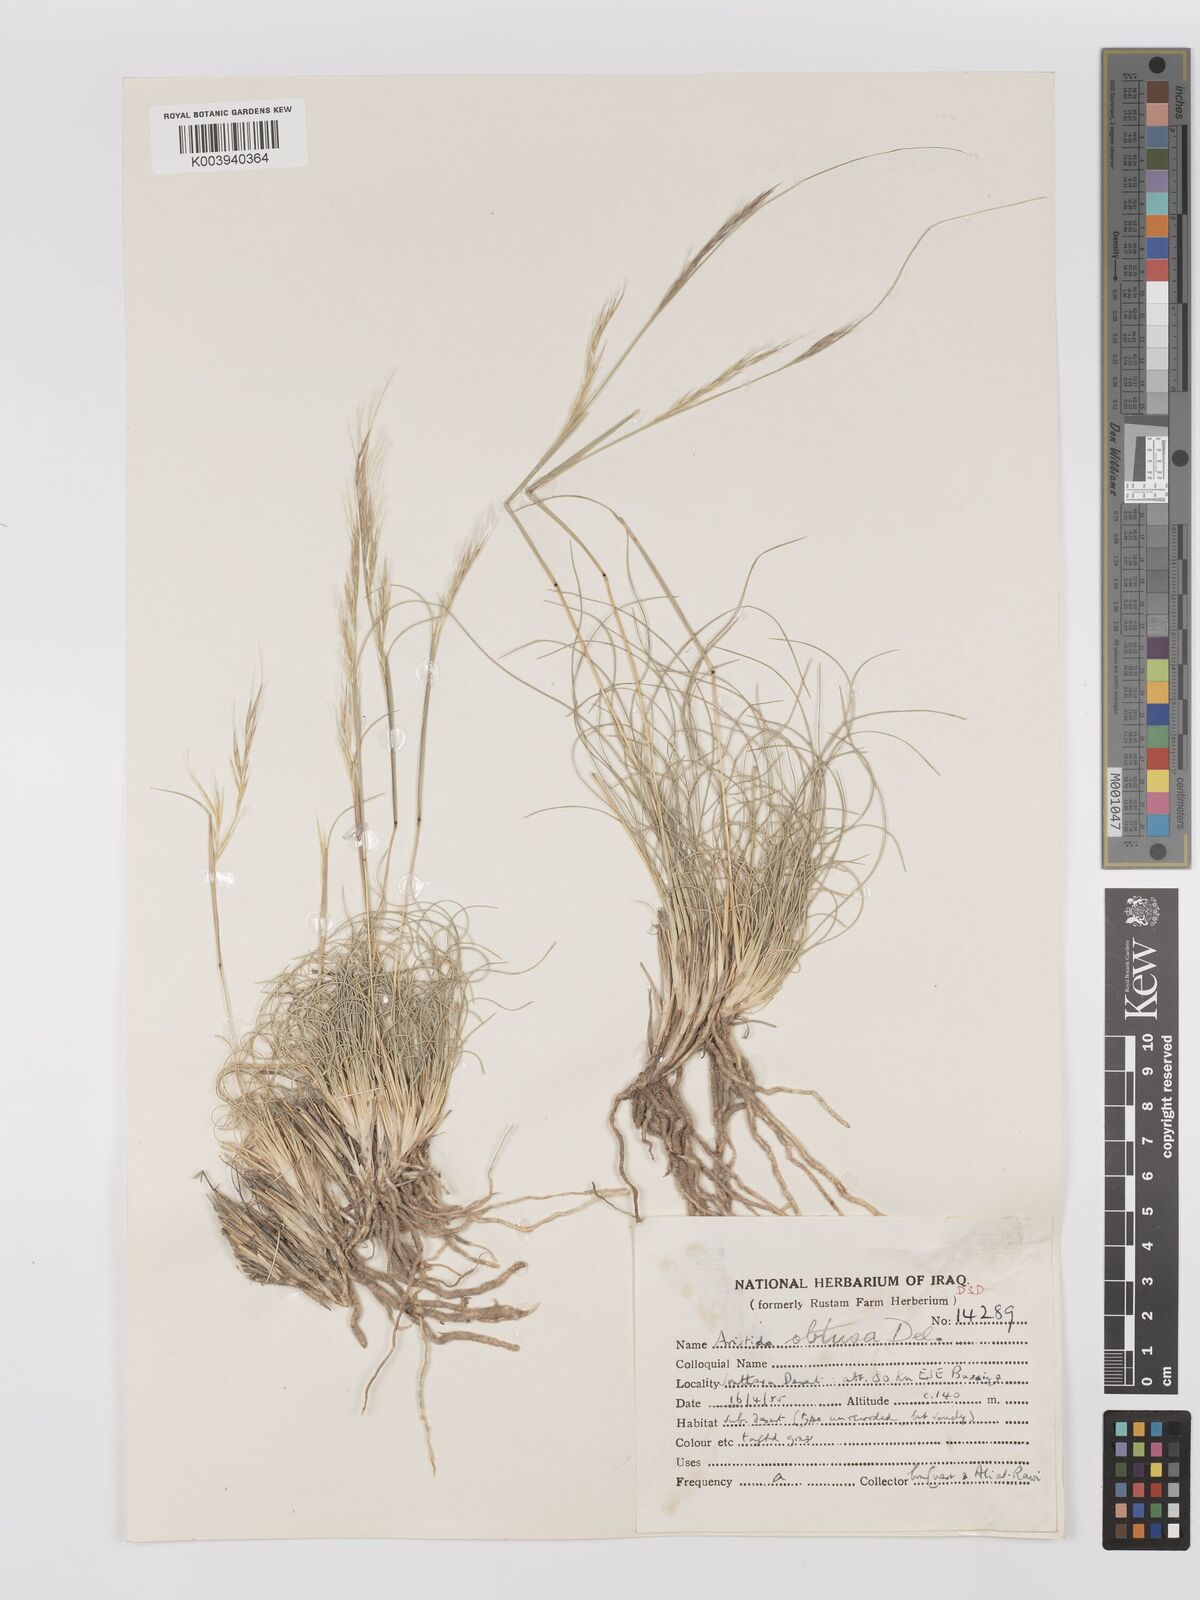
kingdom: Plantae
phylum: Tracheophyta
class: Liliopsida
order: Poales
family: Poaceae
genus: Stipagrostis
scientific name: Stipagrostis obtusa
